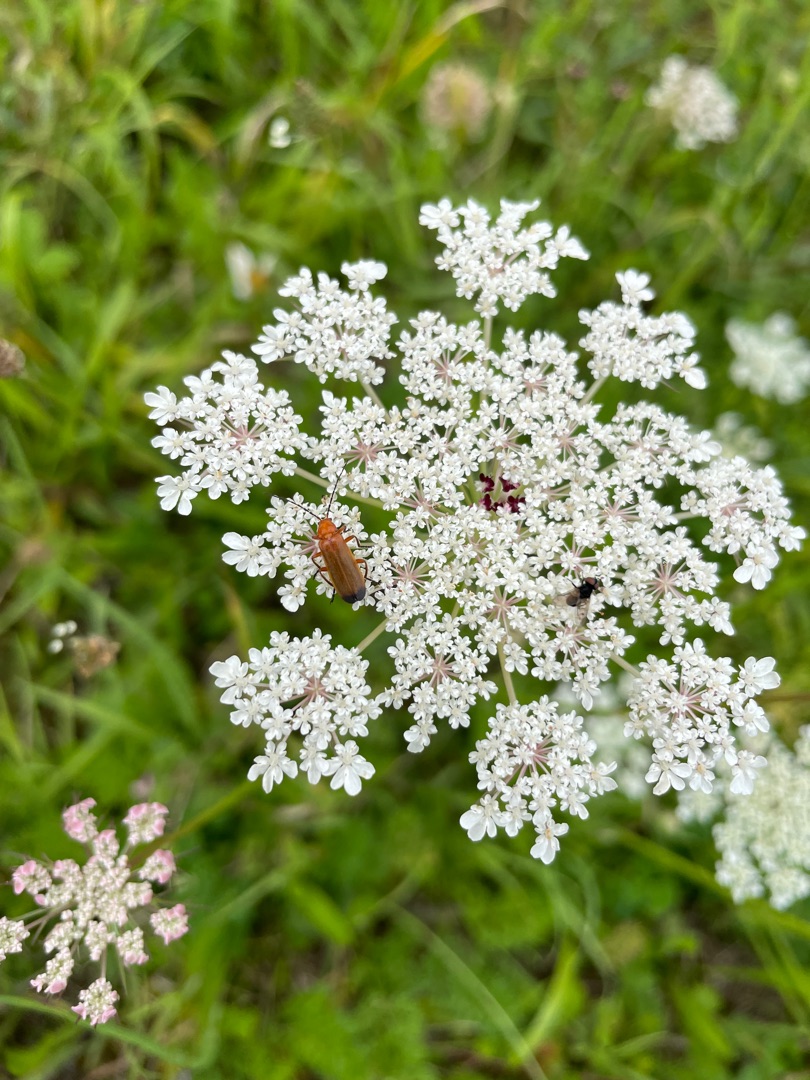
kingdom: Animalia
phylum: Arthropoda
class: Insecta
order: Coleoptera
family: Cantharidae
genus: Rhagonycha
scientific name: Rhagonycha fulva
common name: Præstebille
